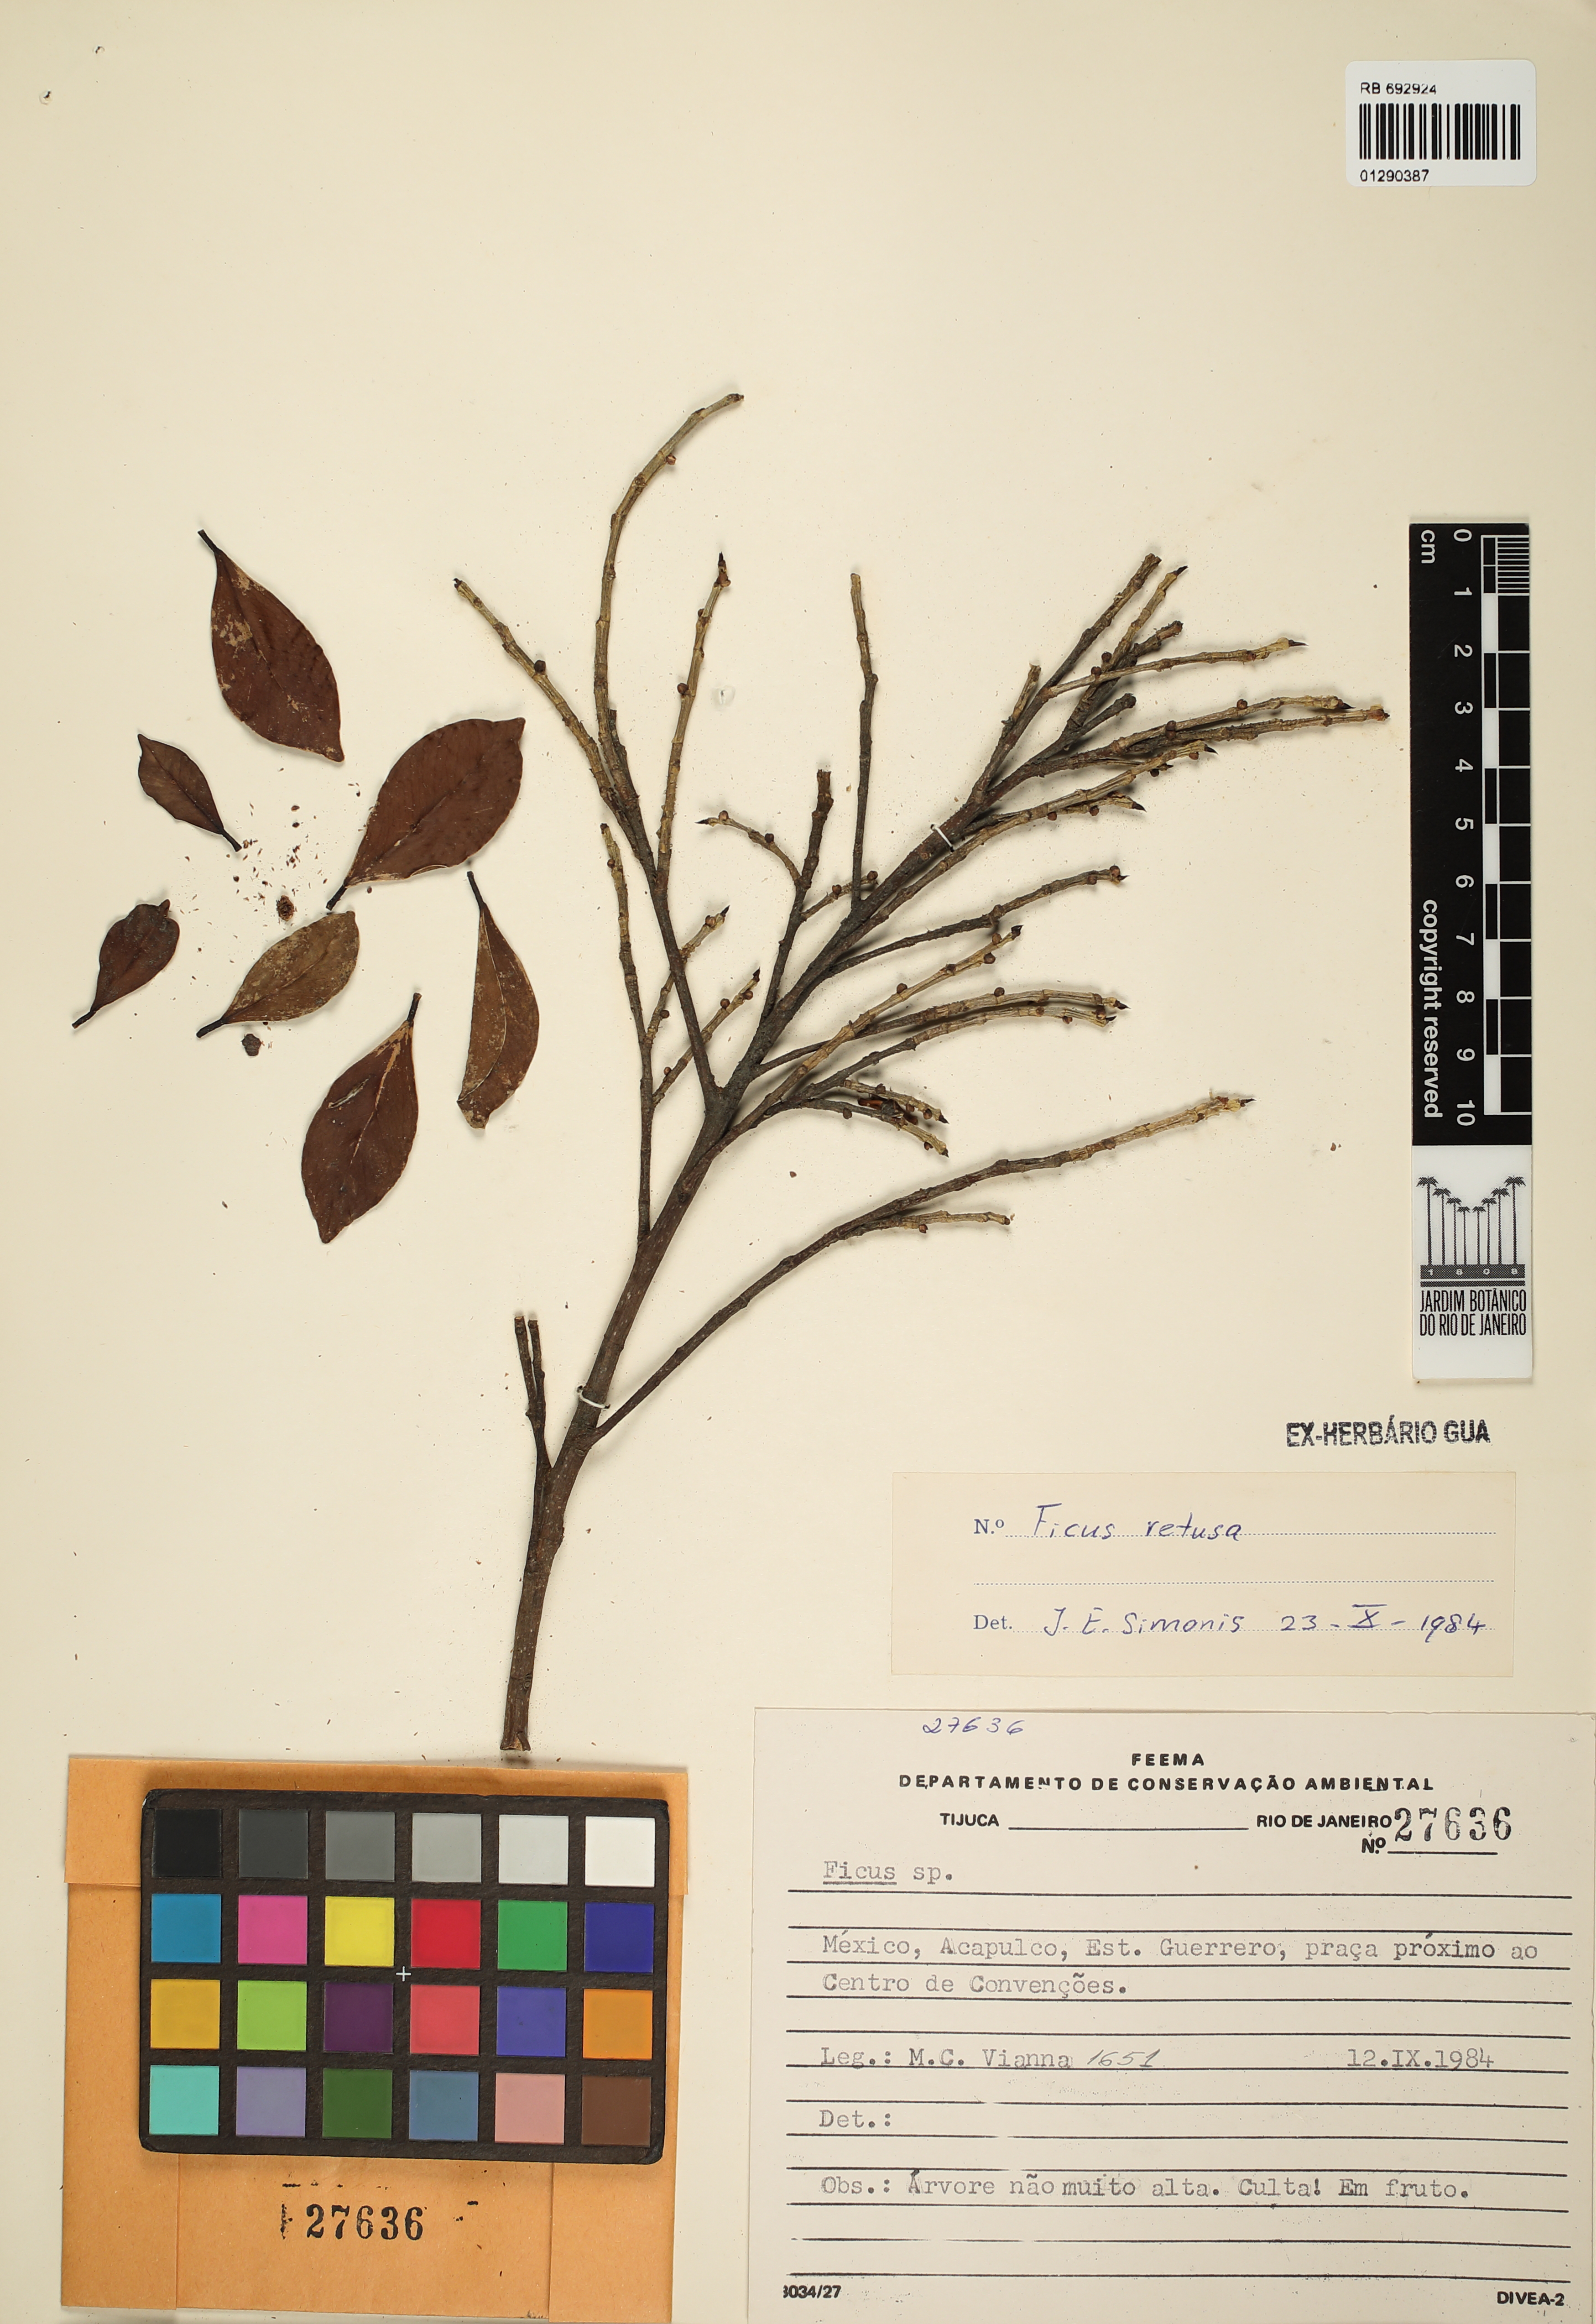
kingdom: Plantae
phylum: Tracheophyta
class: Magnoliopsida
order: Rosales
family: Moraceae
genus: Ficus
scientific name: Ficus retusa
